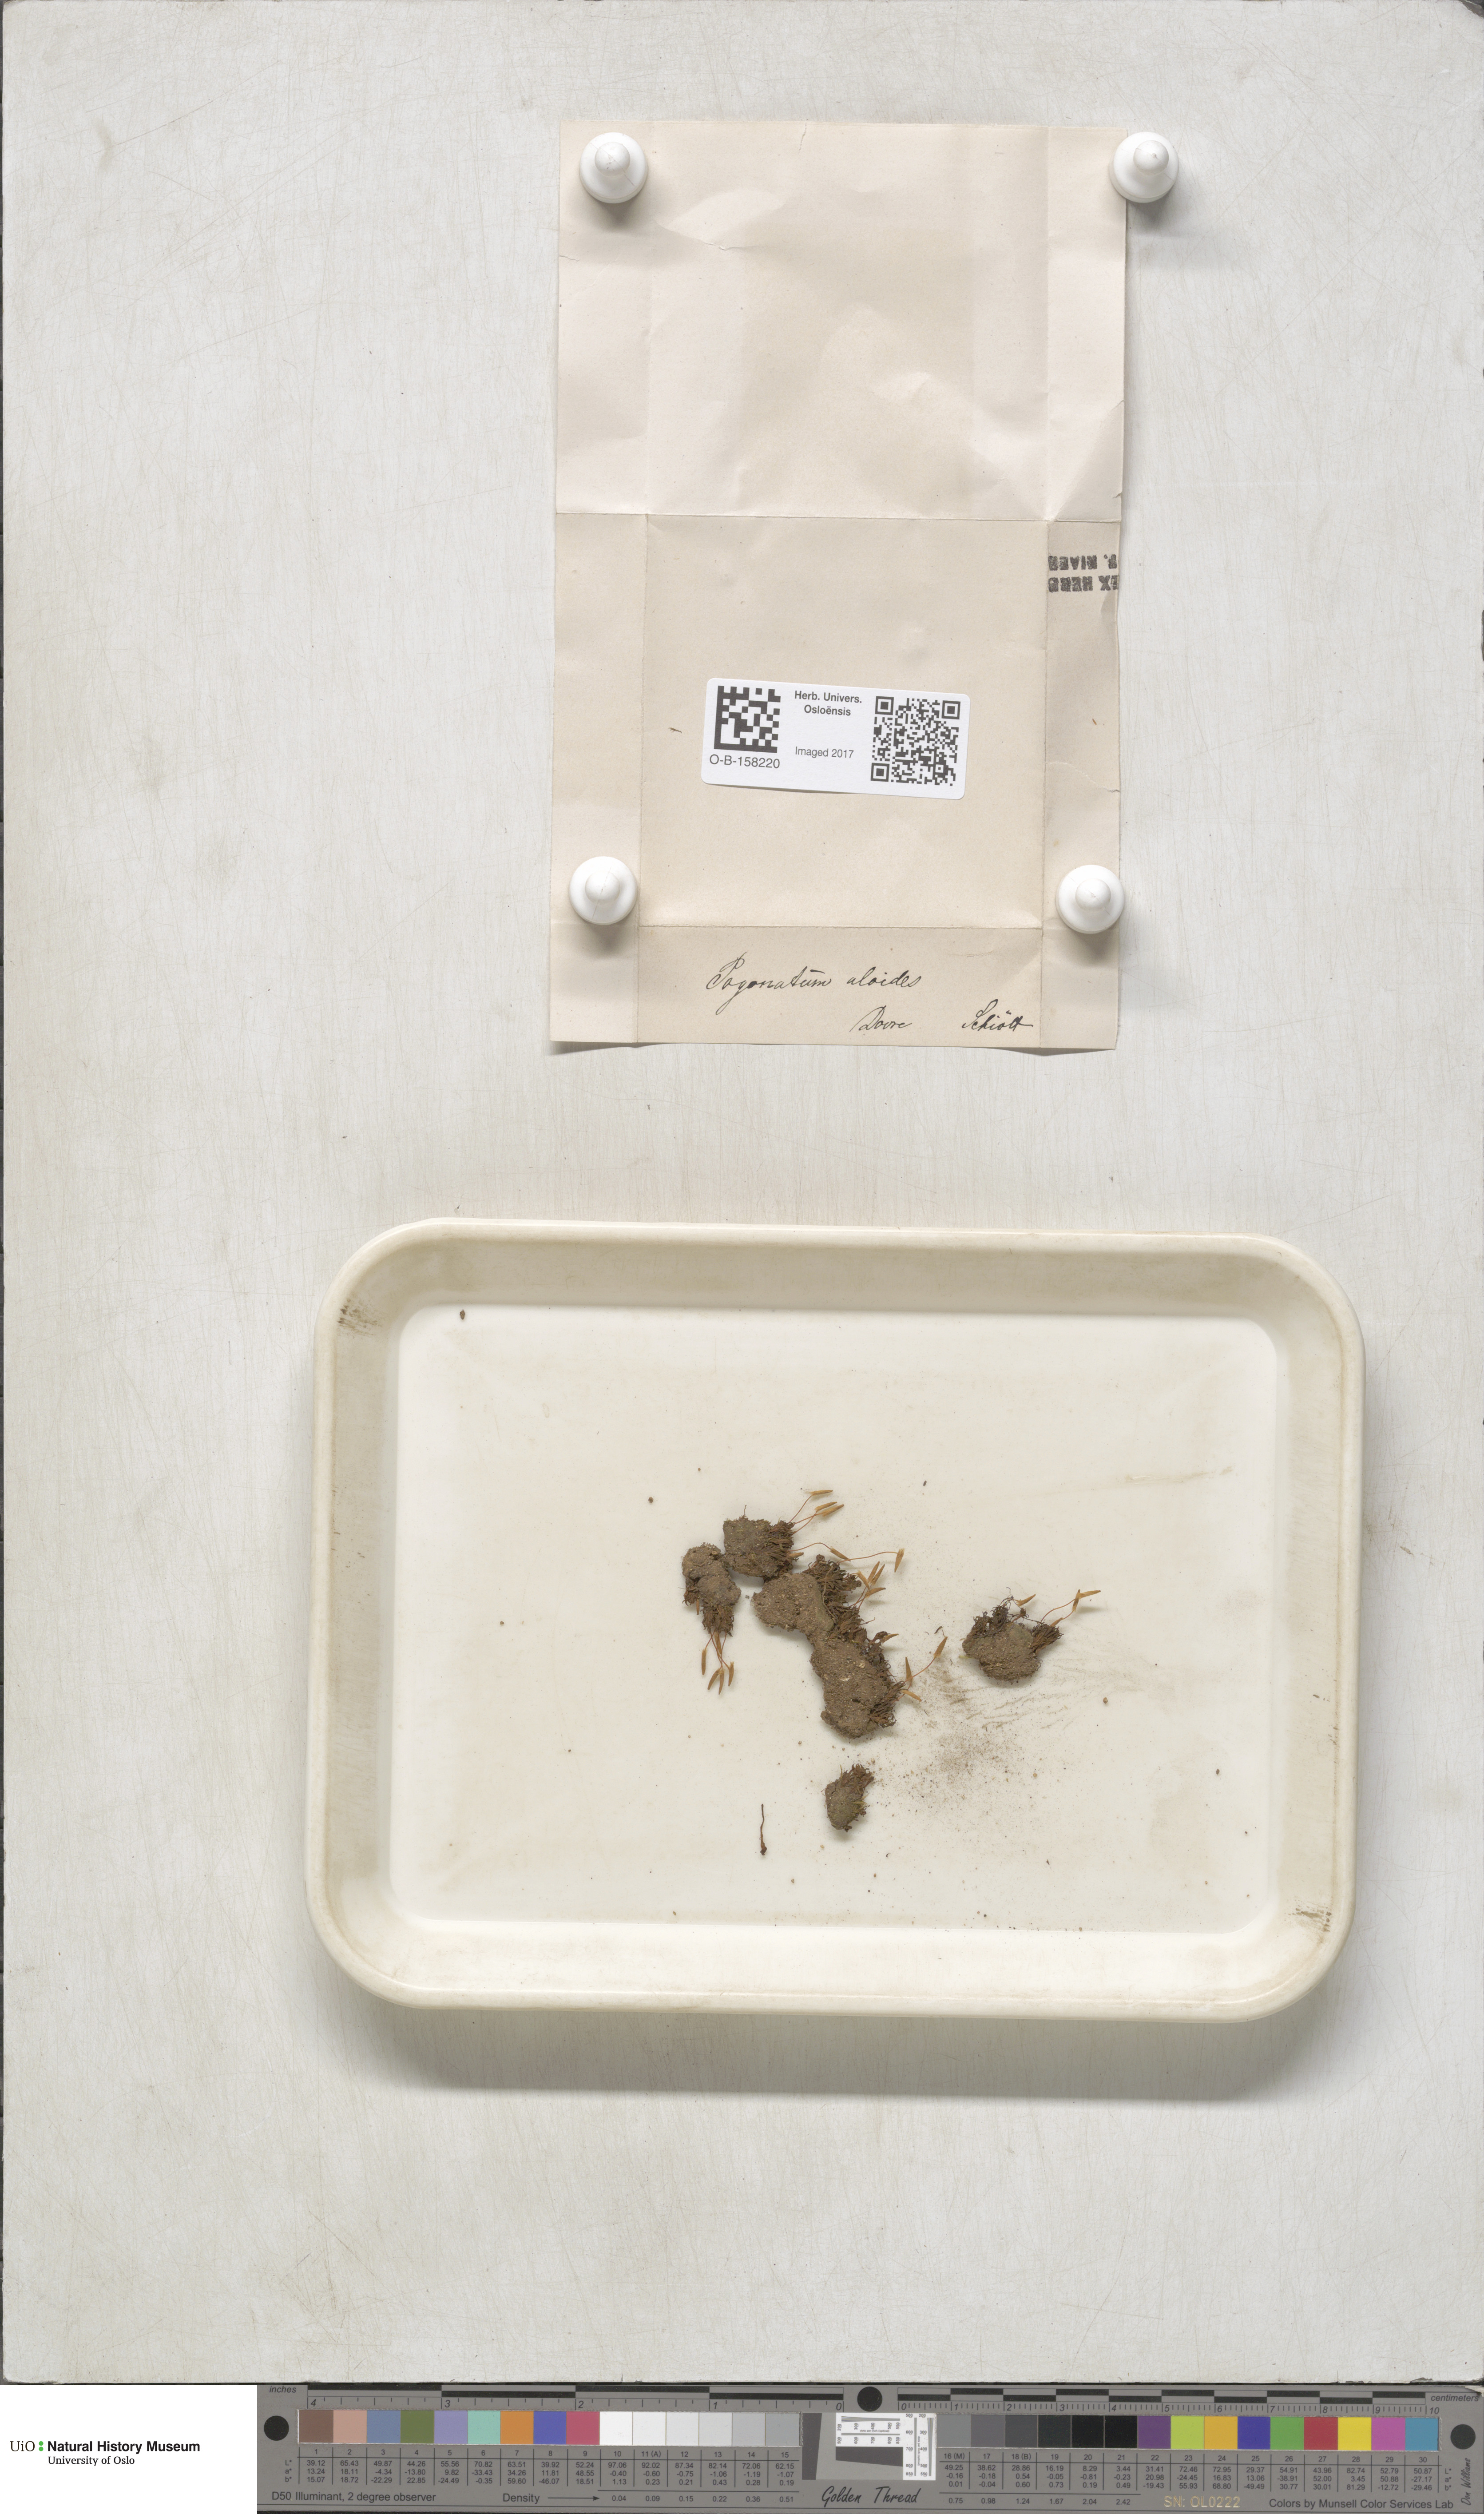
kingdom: Plantae
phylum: Bryophyta
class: Polytrichopsida
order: Polytrichales
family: Polytrichaceae
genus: Pogonatum
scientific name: Pogonatum aloides
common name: Aloe haircap
